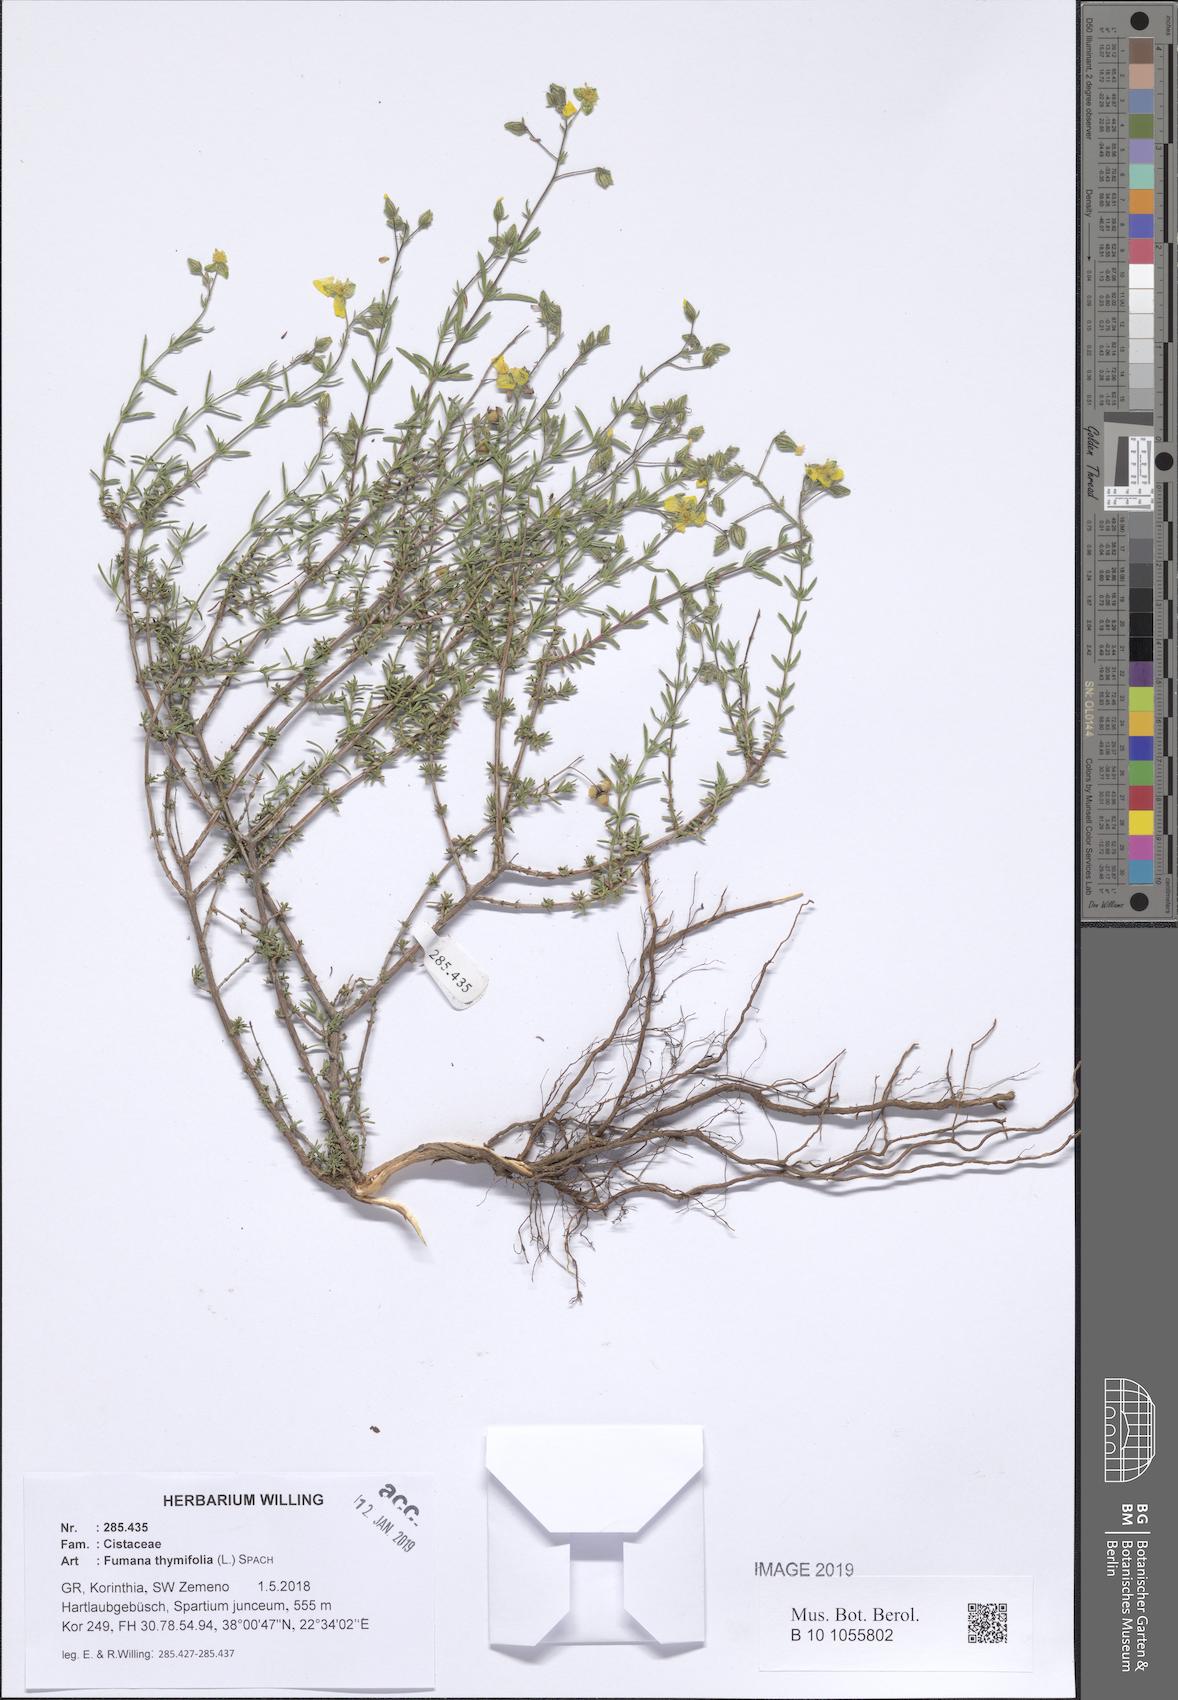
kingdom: Plantae
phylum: Tracheophyta
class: Magnoliopsida
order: Malvales
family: Cistaceae
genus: Fumana
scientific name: Fumana thymifolia
